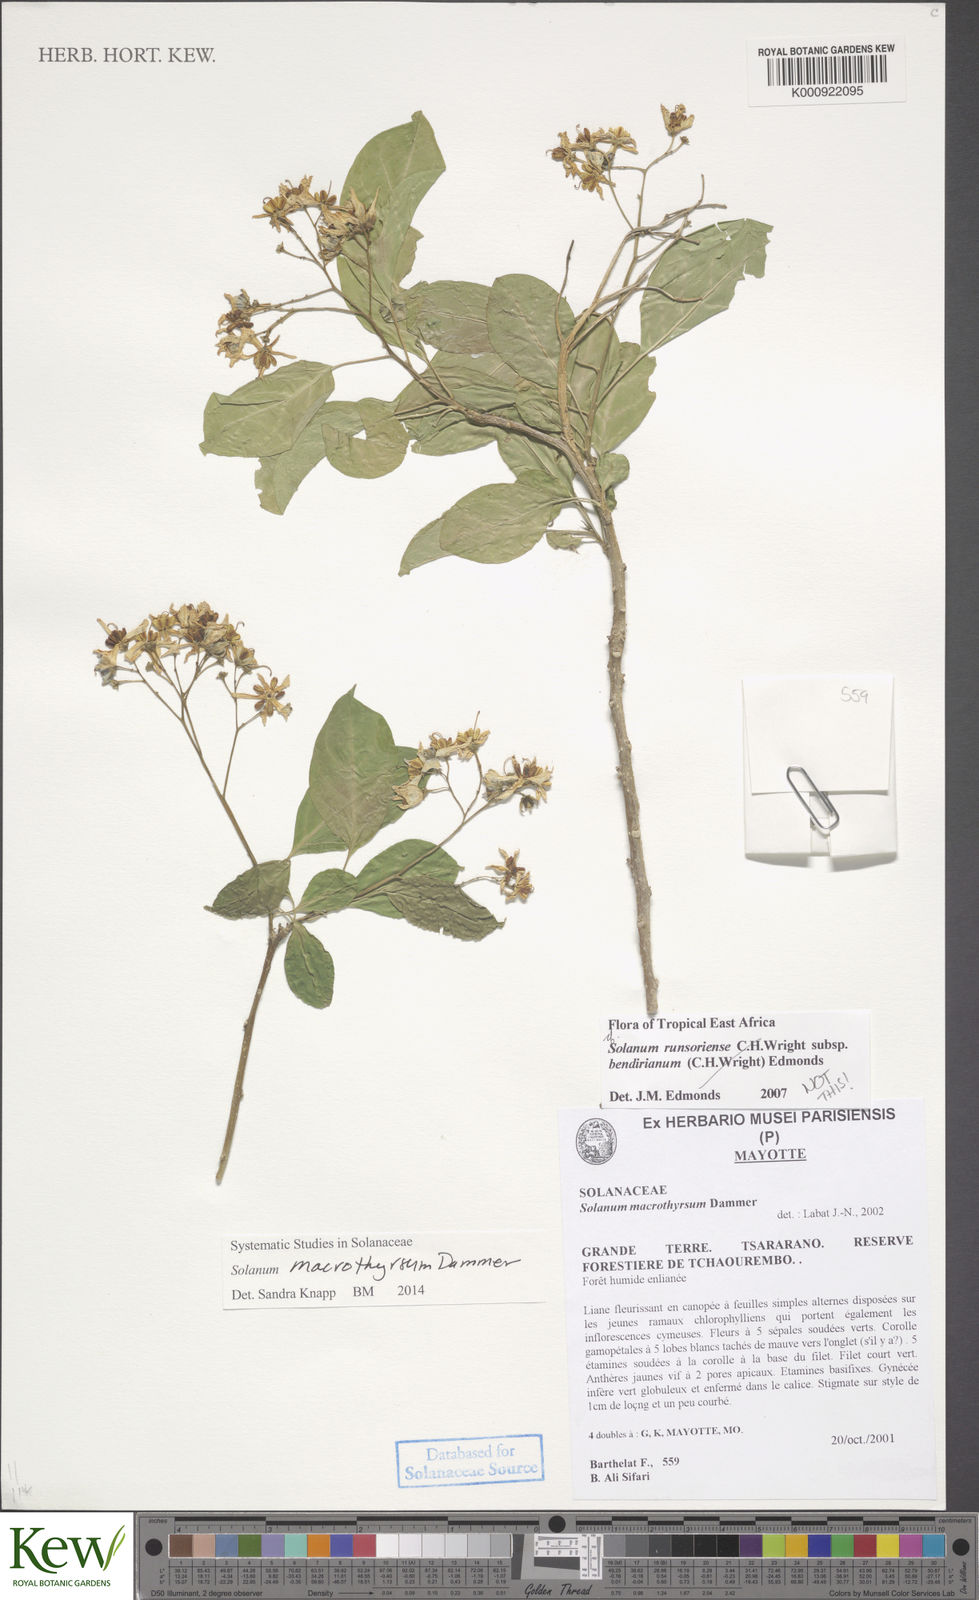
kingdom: Plantae
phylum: Tracheophyta
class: Magnoliopsida
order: Solanales
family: Solanaceae
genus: Solanum
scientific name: Solanum runsoriense
